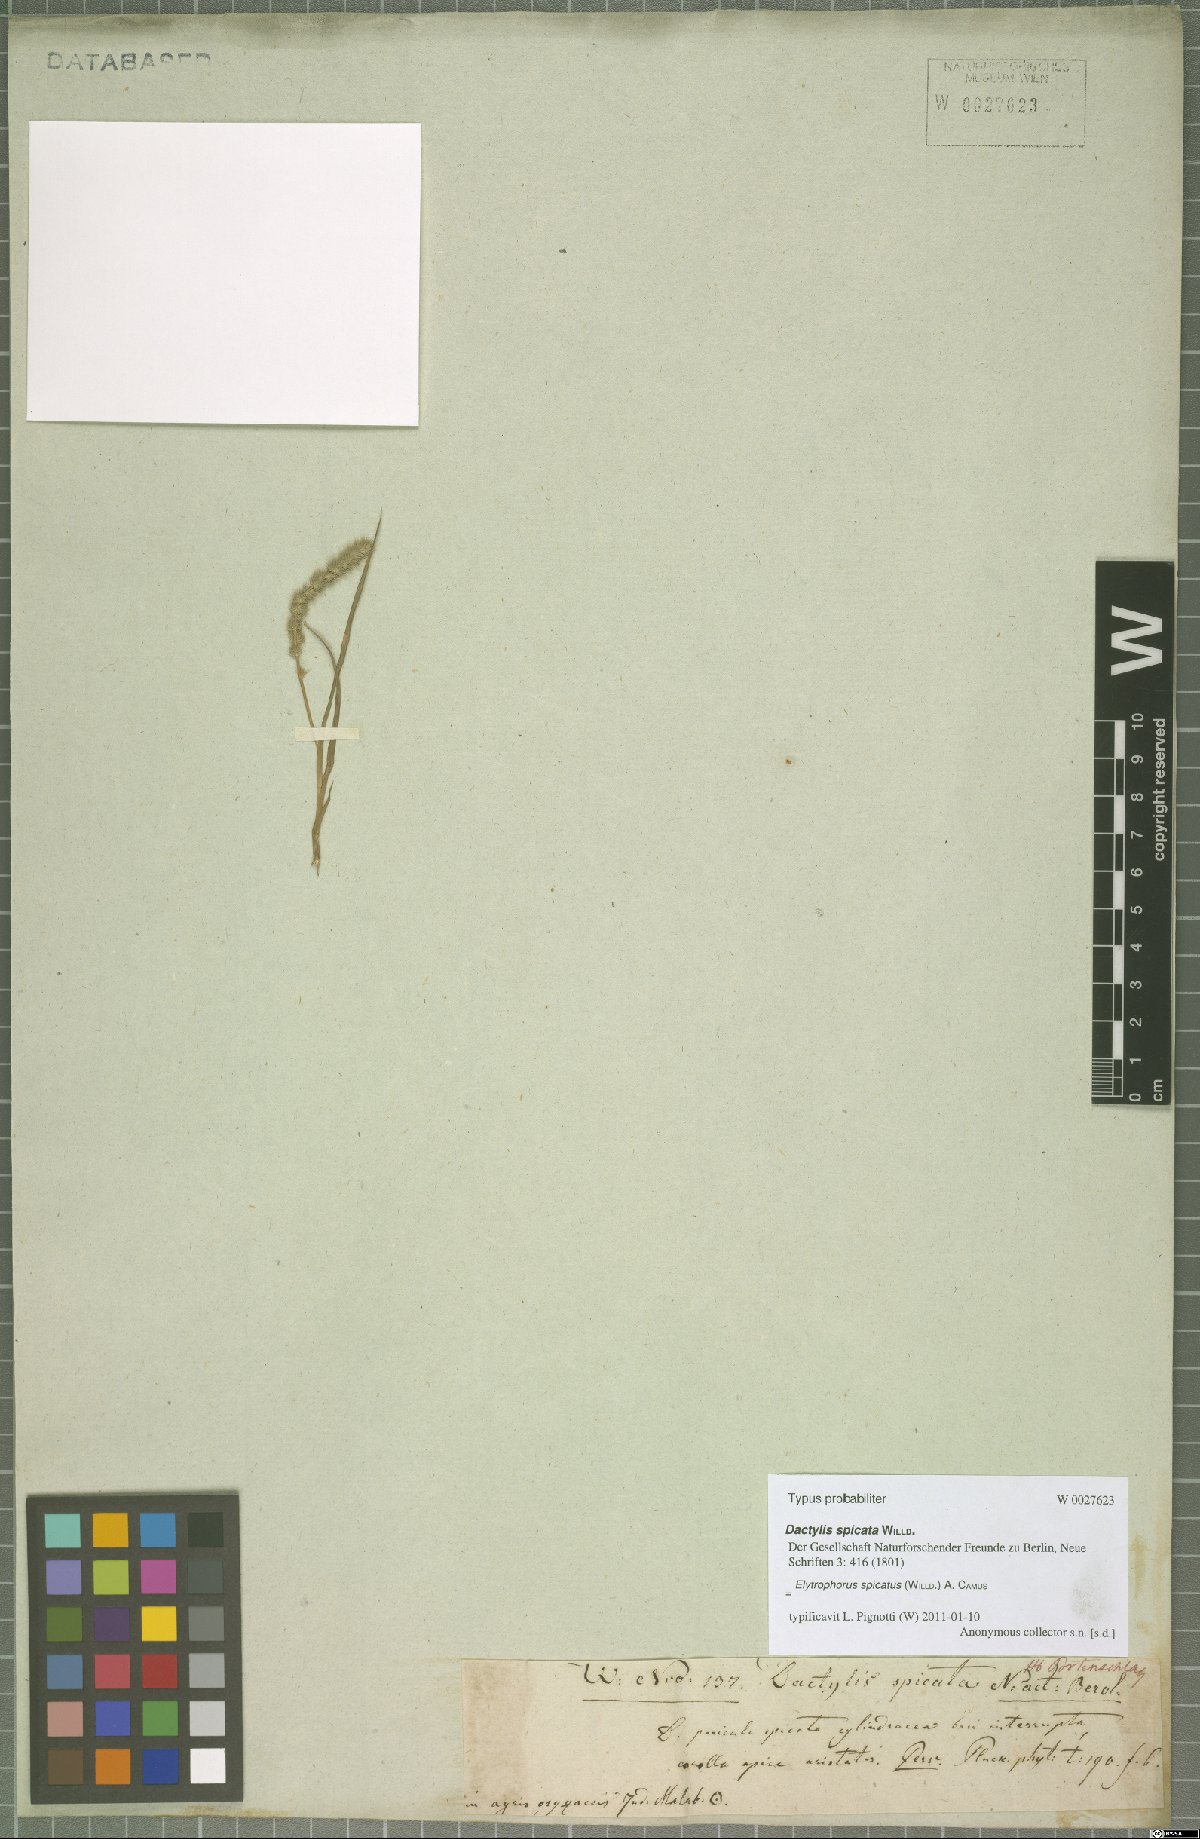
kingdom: Plantae
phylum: Tracheophyta
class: Liliopsida
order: Poales
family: Poaceae
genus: Elytrophorus
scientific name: Elytrophorus spicatus
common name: Spike grass
